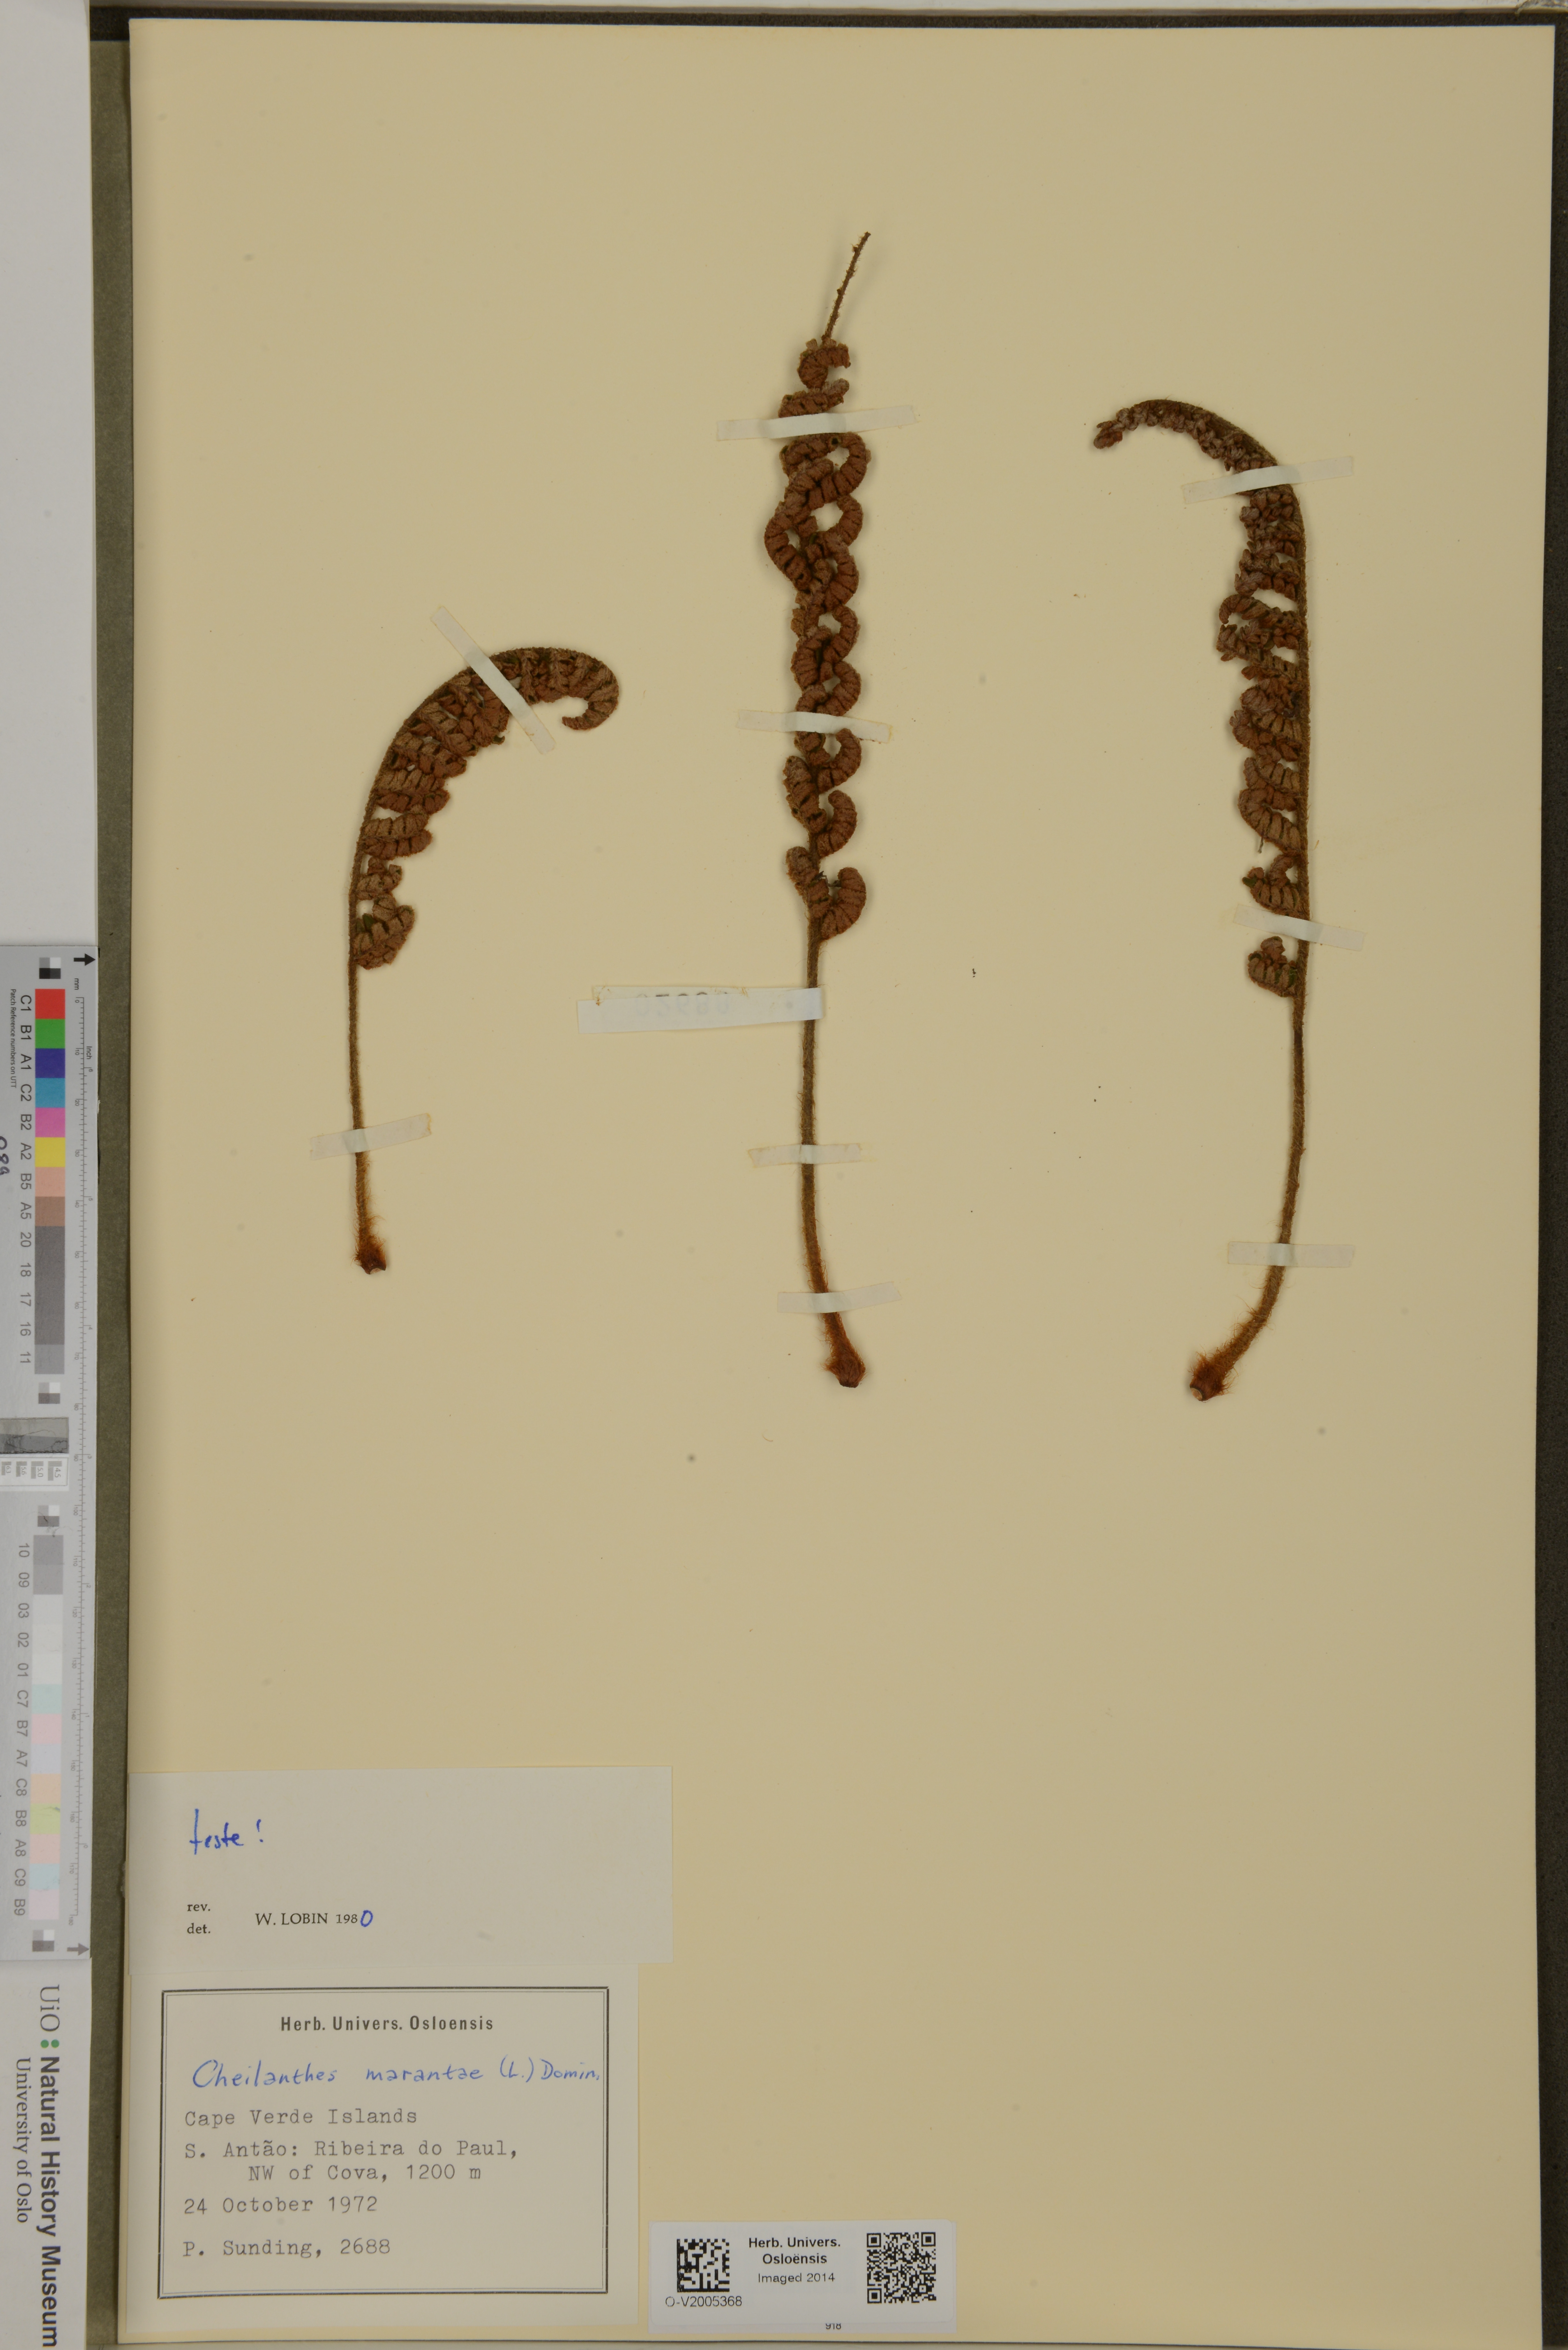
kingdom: Plantae
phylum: Tracheophyta
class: Polypodiopsida
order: Polypodiales
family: Pteridaceae
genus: Paragymnopteris
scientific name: Paragymnopteris marantae
